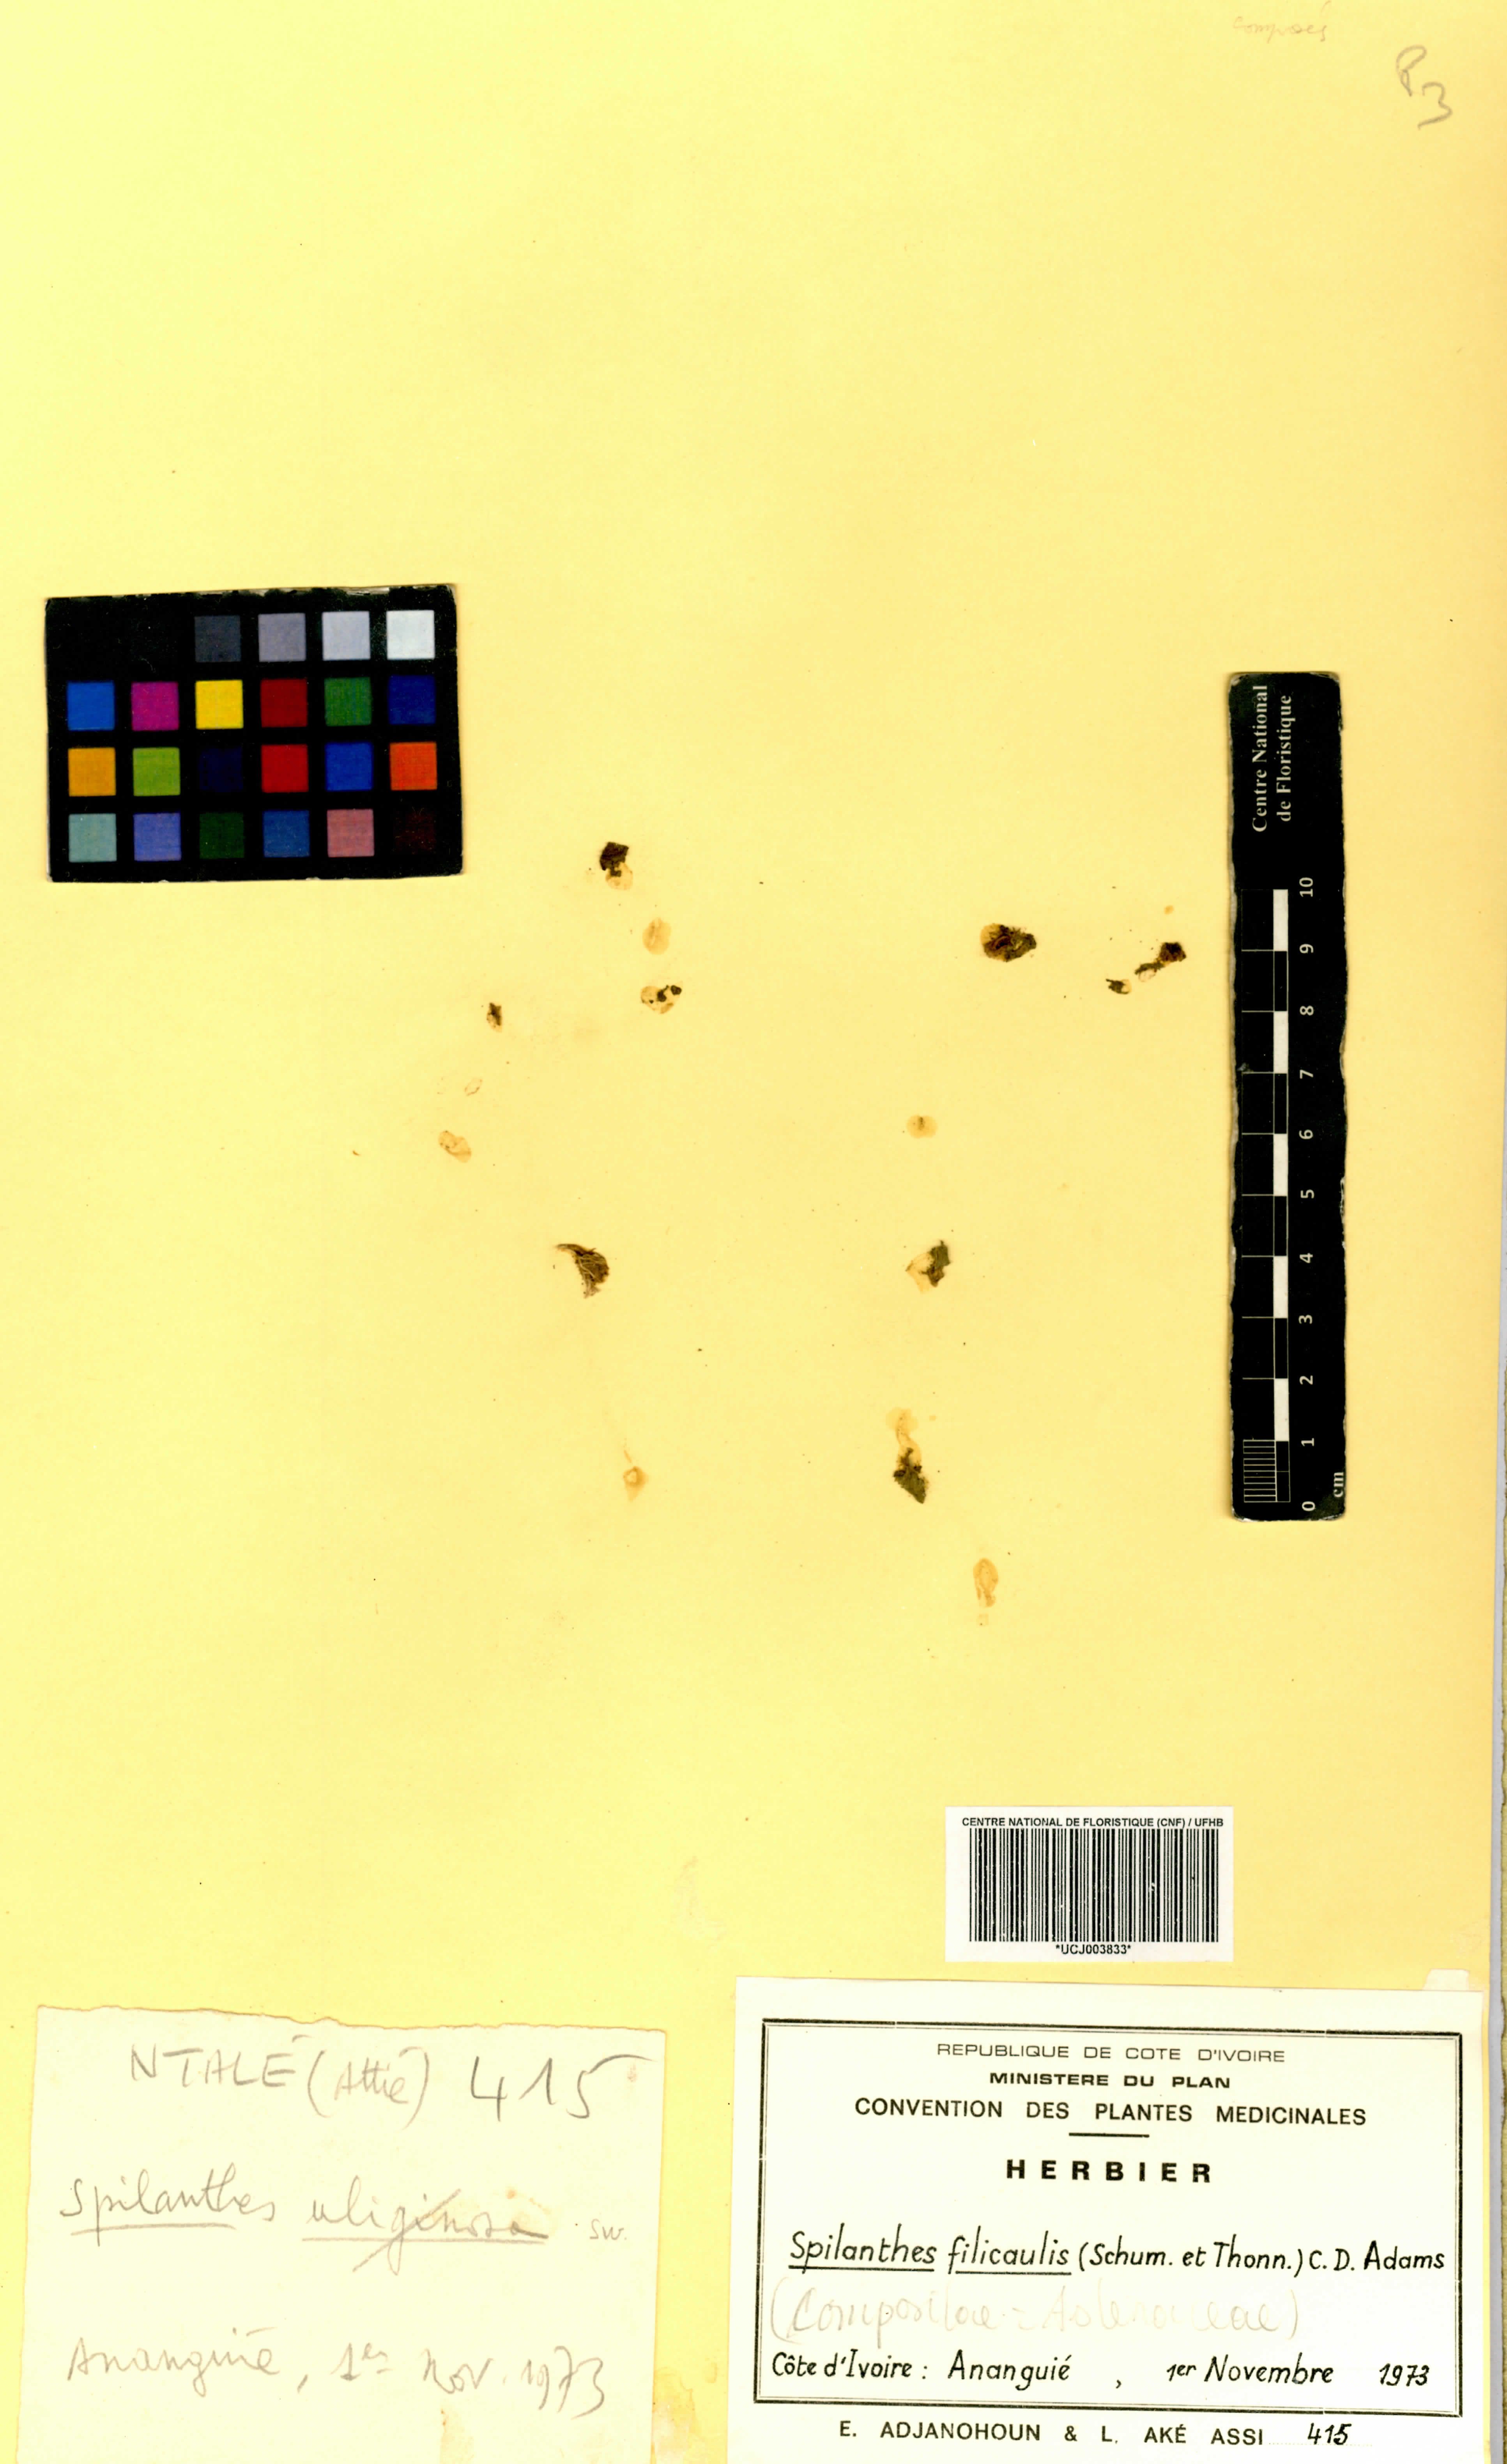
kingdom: Plantae
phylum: Tracheophyta
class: Magnoliopsida
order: Asterales
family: Asteraceae
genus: Acmella
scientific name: Acmella caulirhiza
